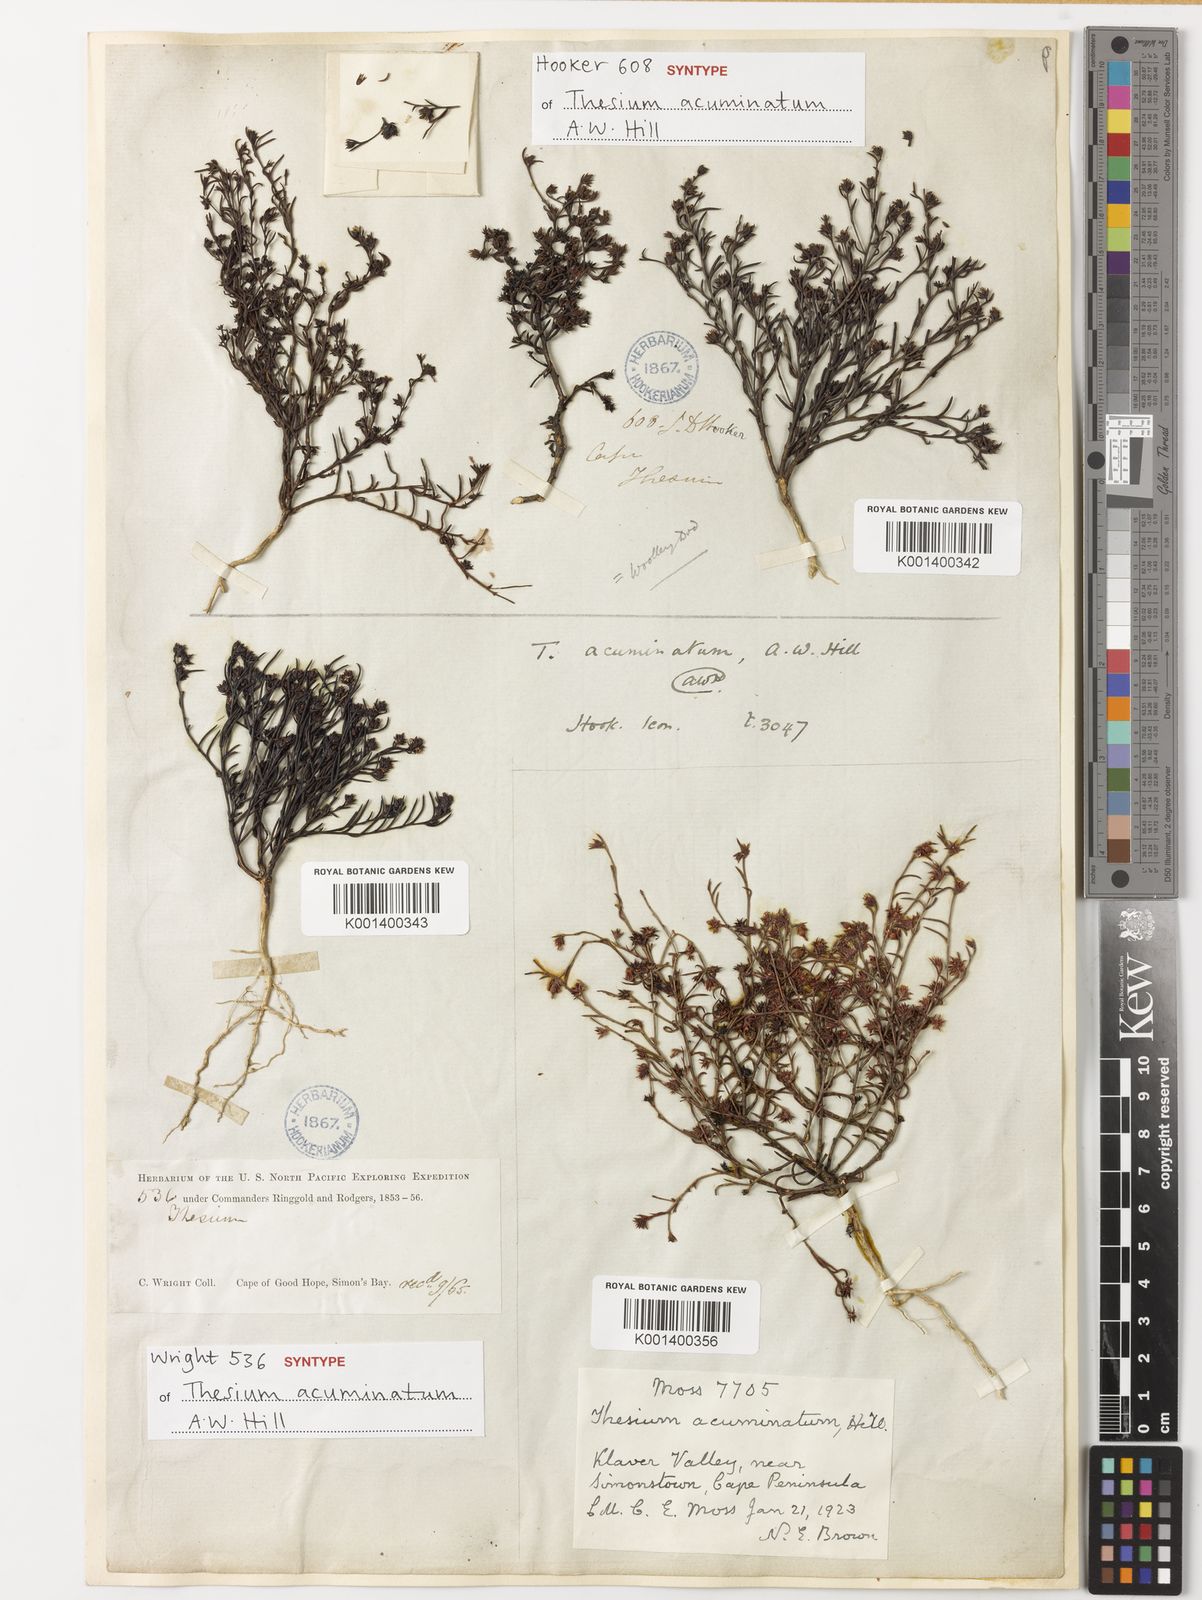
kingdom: Plantae
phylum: Tracheophyta
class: Magnoliopsida
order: Santalales
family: Thesiaceae
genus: Thesium
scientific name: Thesium acuminatum
